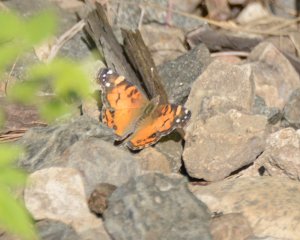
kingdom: Animalia
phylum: Arthropoda
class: Insecta
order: Lepidoptera
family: Nymphalidae
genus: Vanessa
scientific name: Vanessa virginiensis
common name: American Lady
